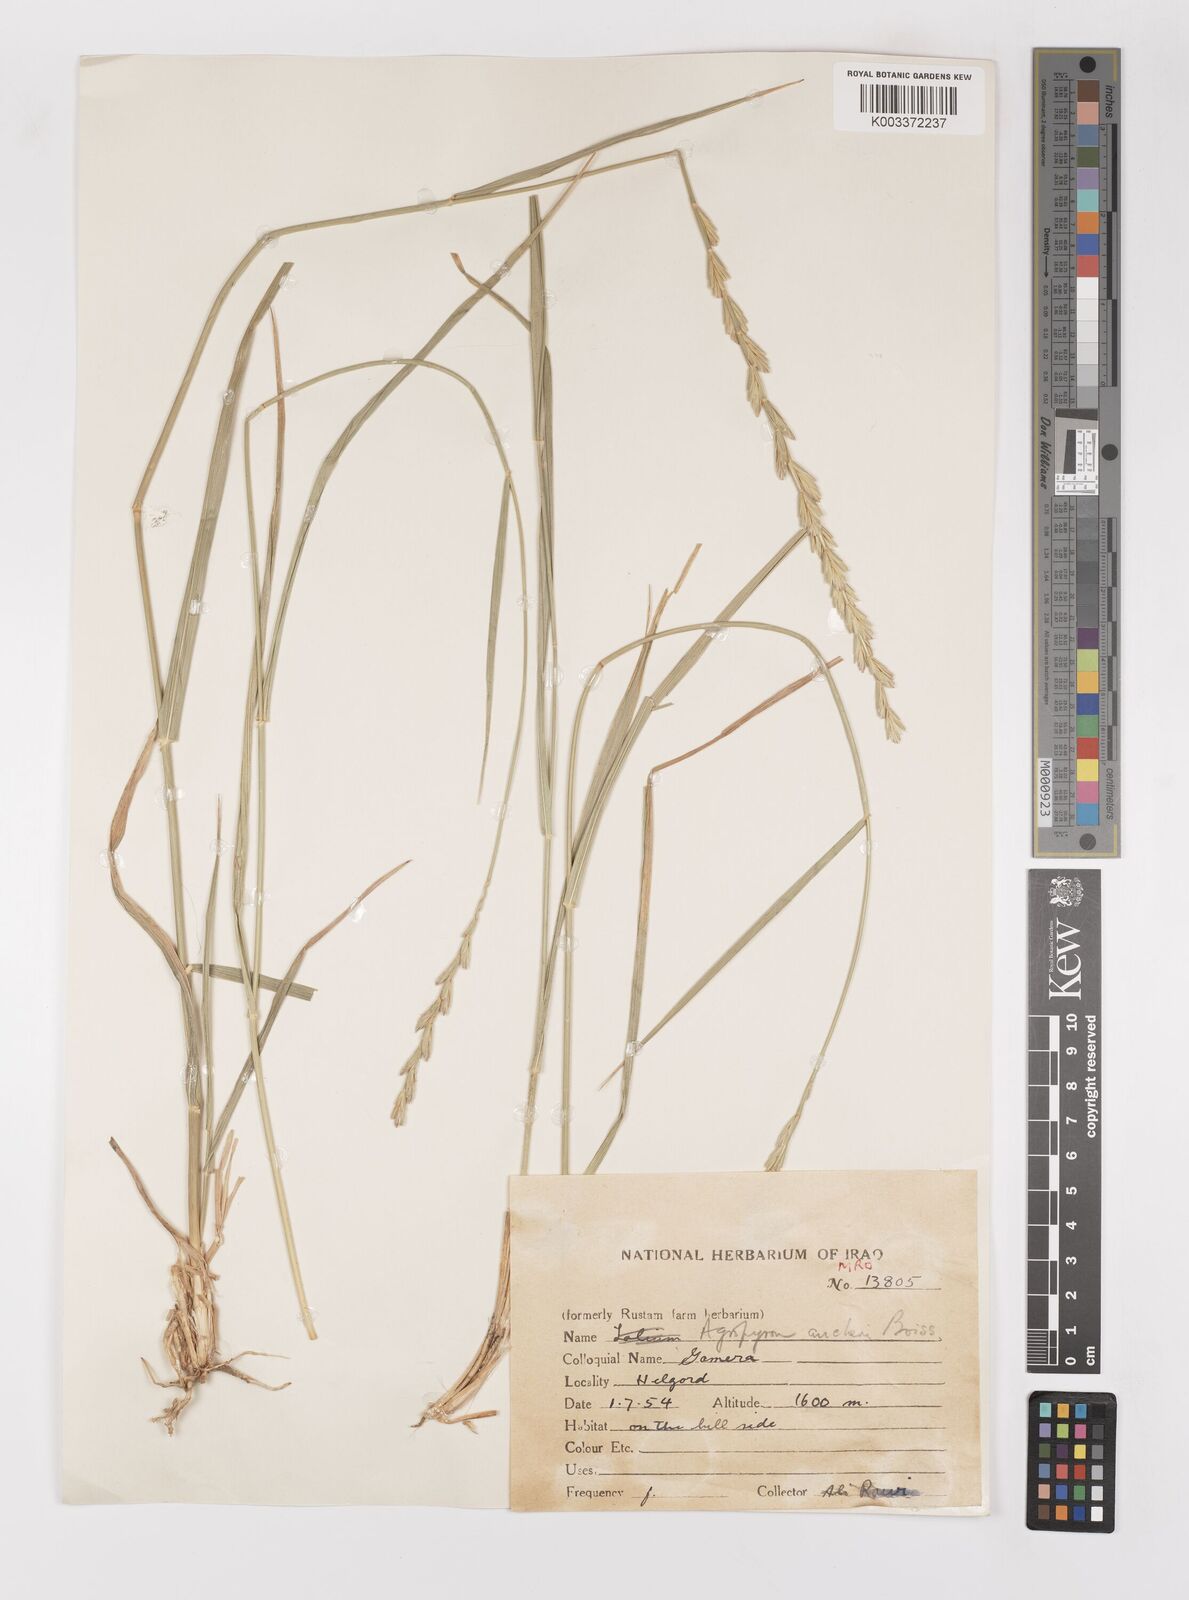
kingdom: Plantae
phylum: Tracheophyta
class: Liliopsida
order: Poales
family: Poaceae
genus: Thinopyrum
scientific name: Thinopyrum intermedium
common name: Intermediate wheatgrass
